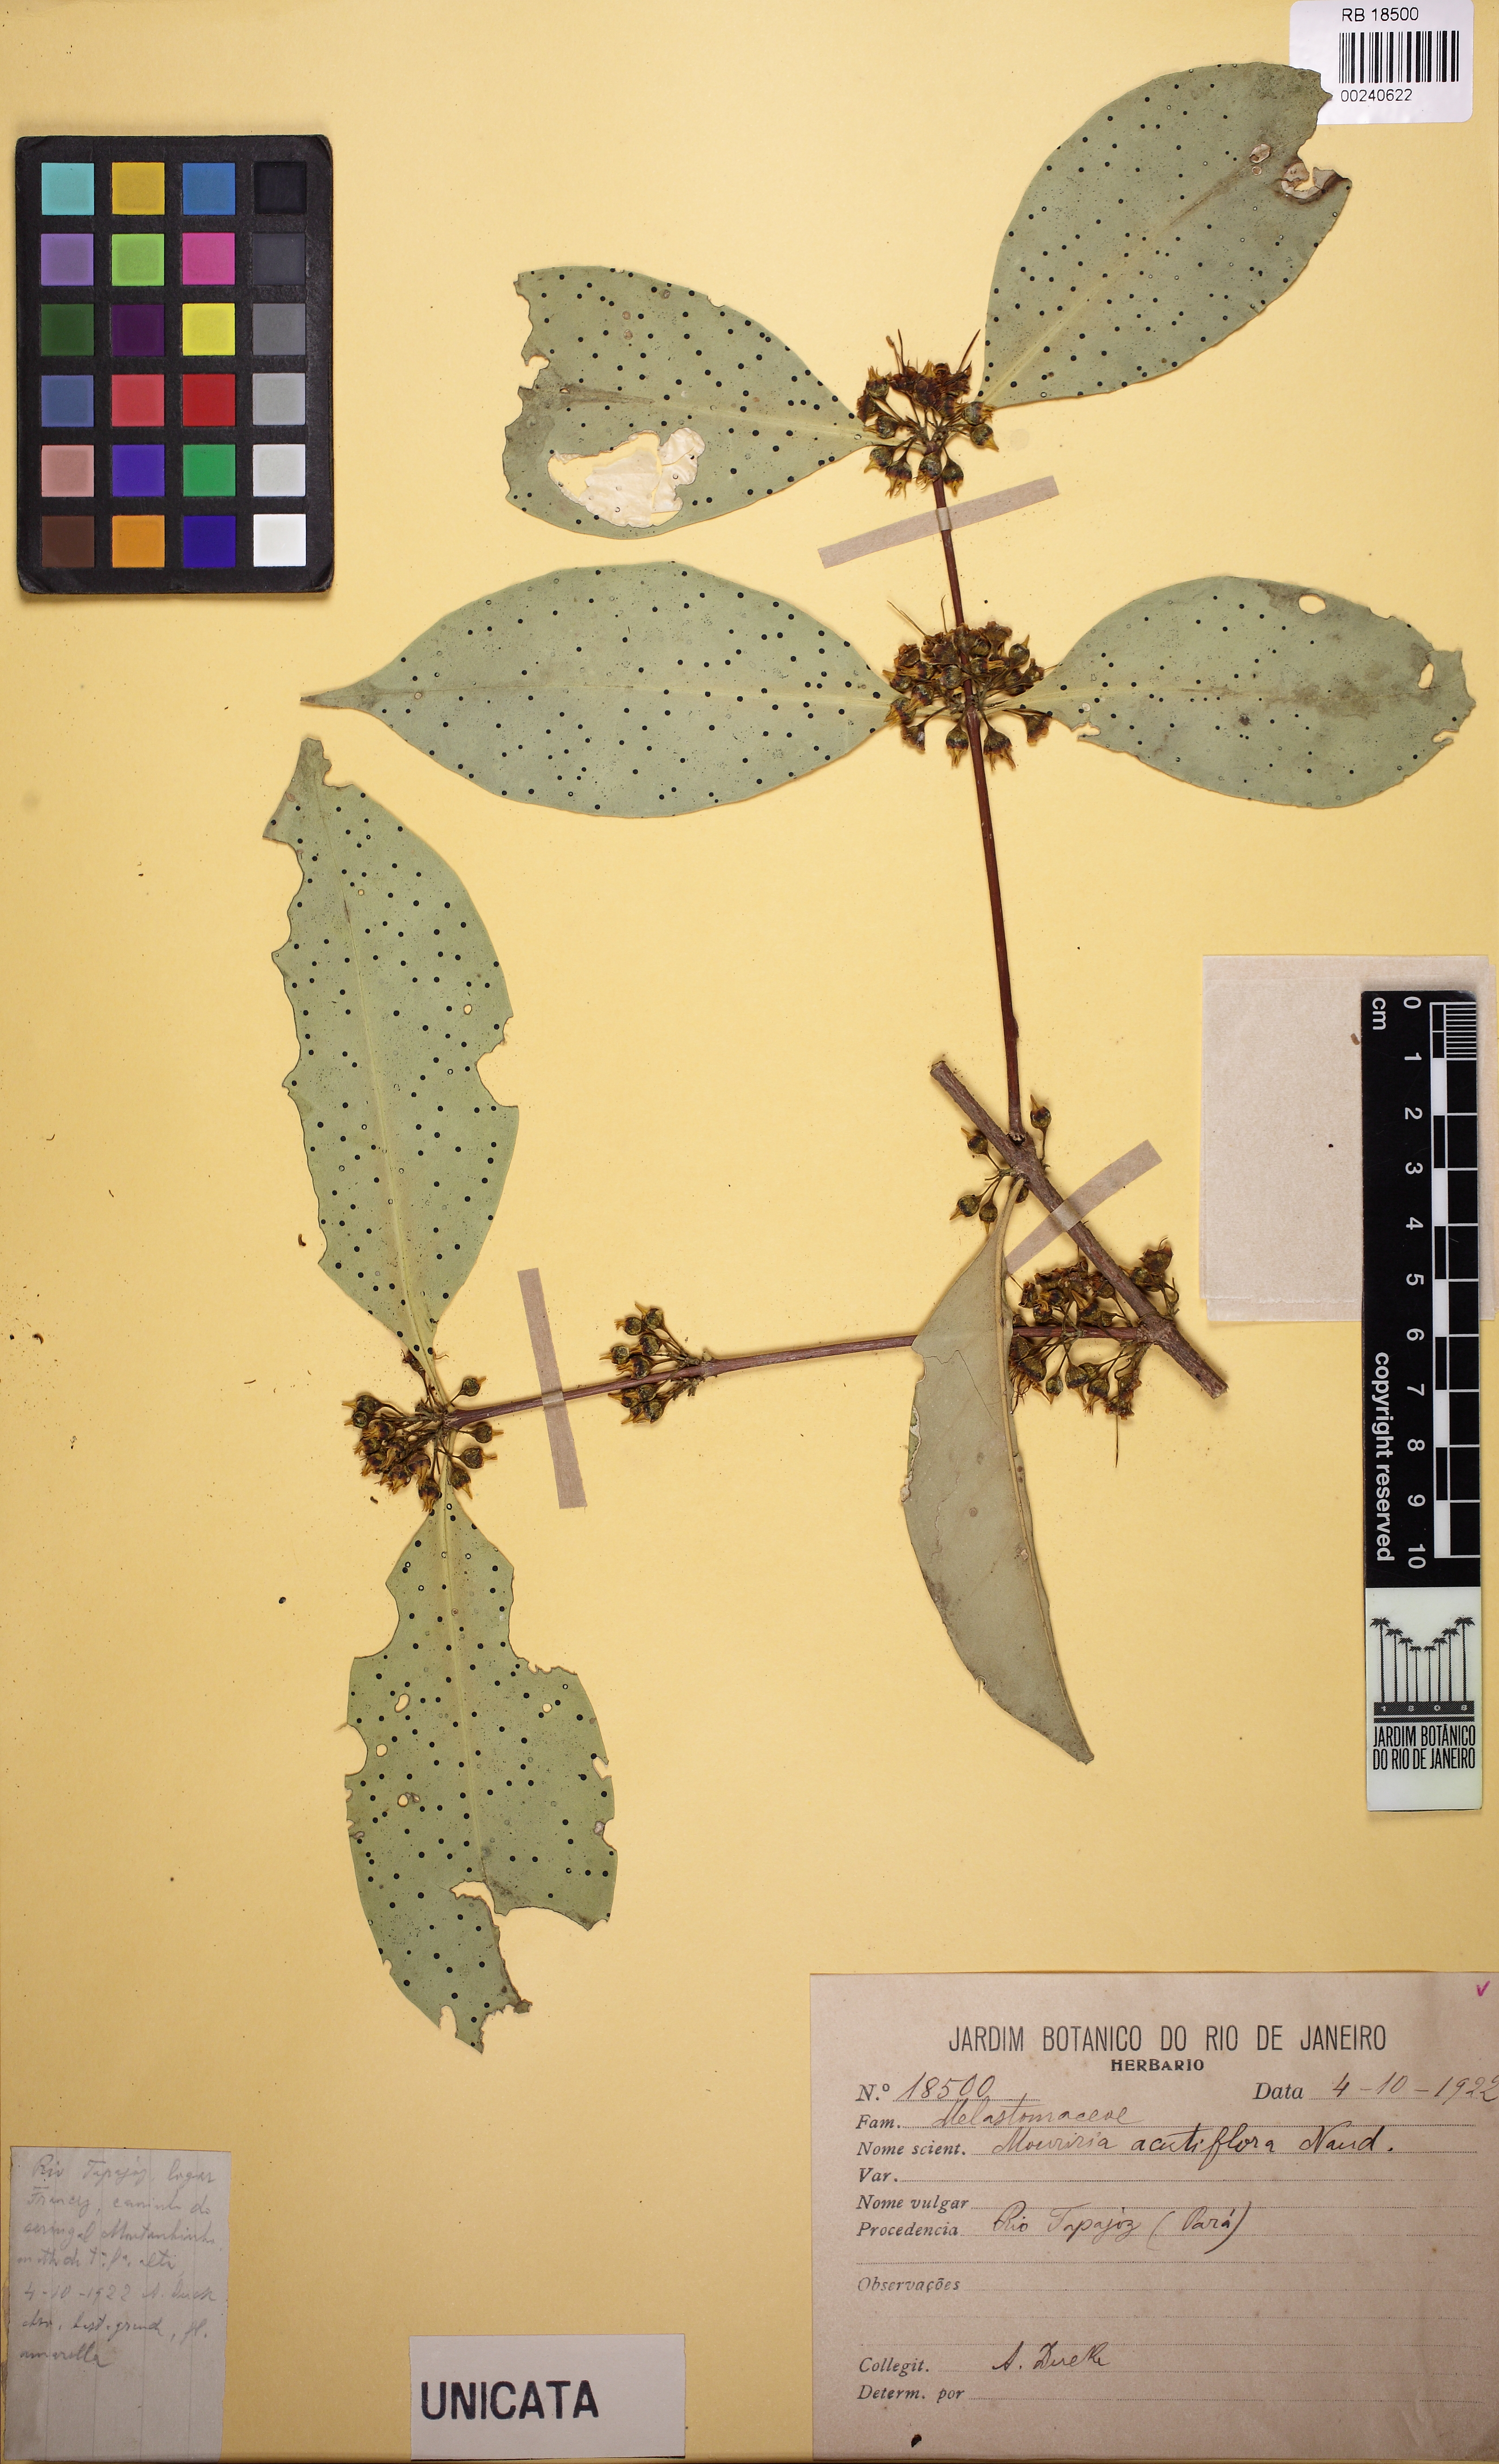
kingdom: Plantae
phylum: Tracheophyta
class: Magnoliopsida
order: Myrtales
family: Melastomataceae
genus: Mouriri
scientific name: Mouriri acutiflora
